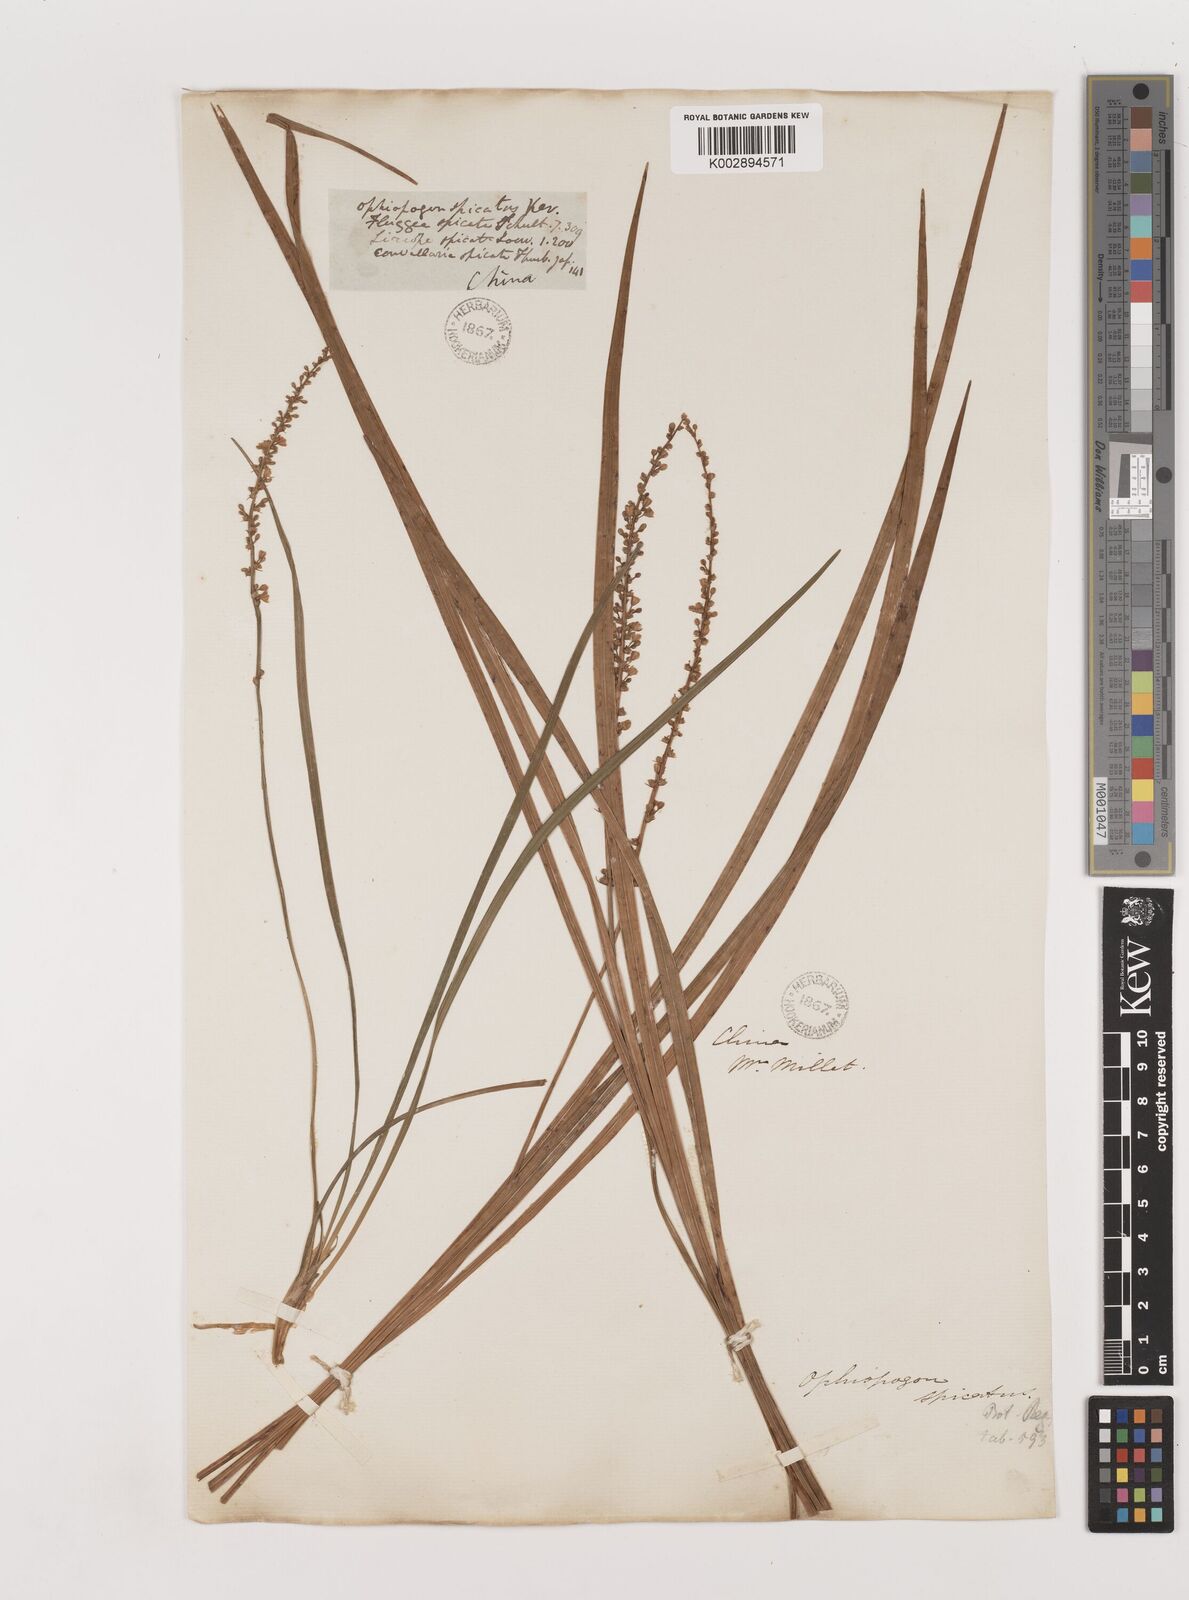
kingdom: Plantae
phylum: Tracheophyta
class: Liliopsida
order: Asparagales
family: Asparagaceae
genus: Liriope
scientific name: Liriope spicata
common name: Creeping liriope
